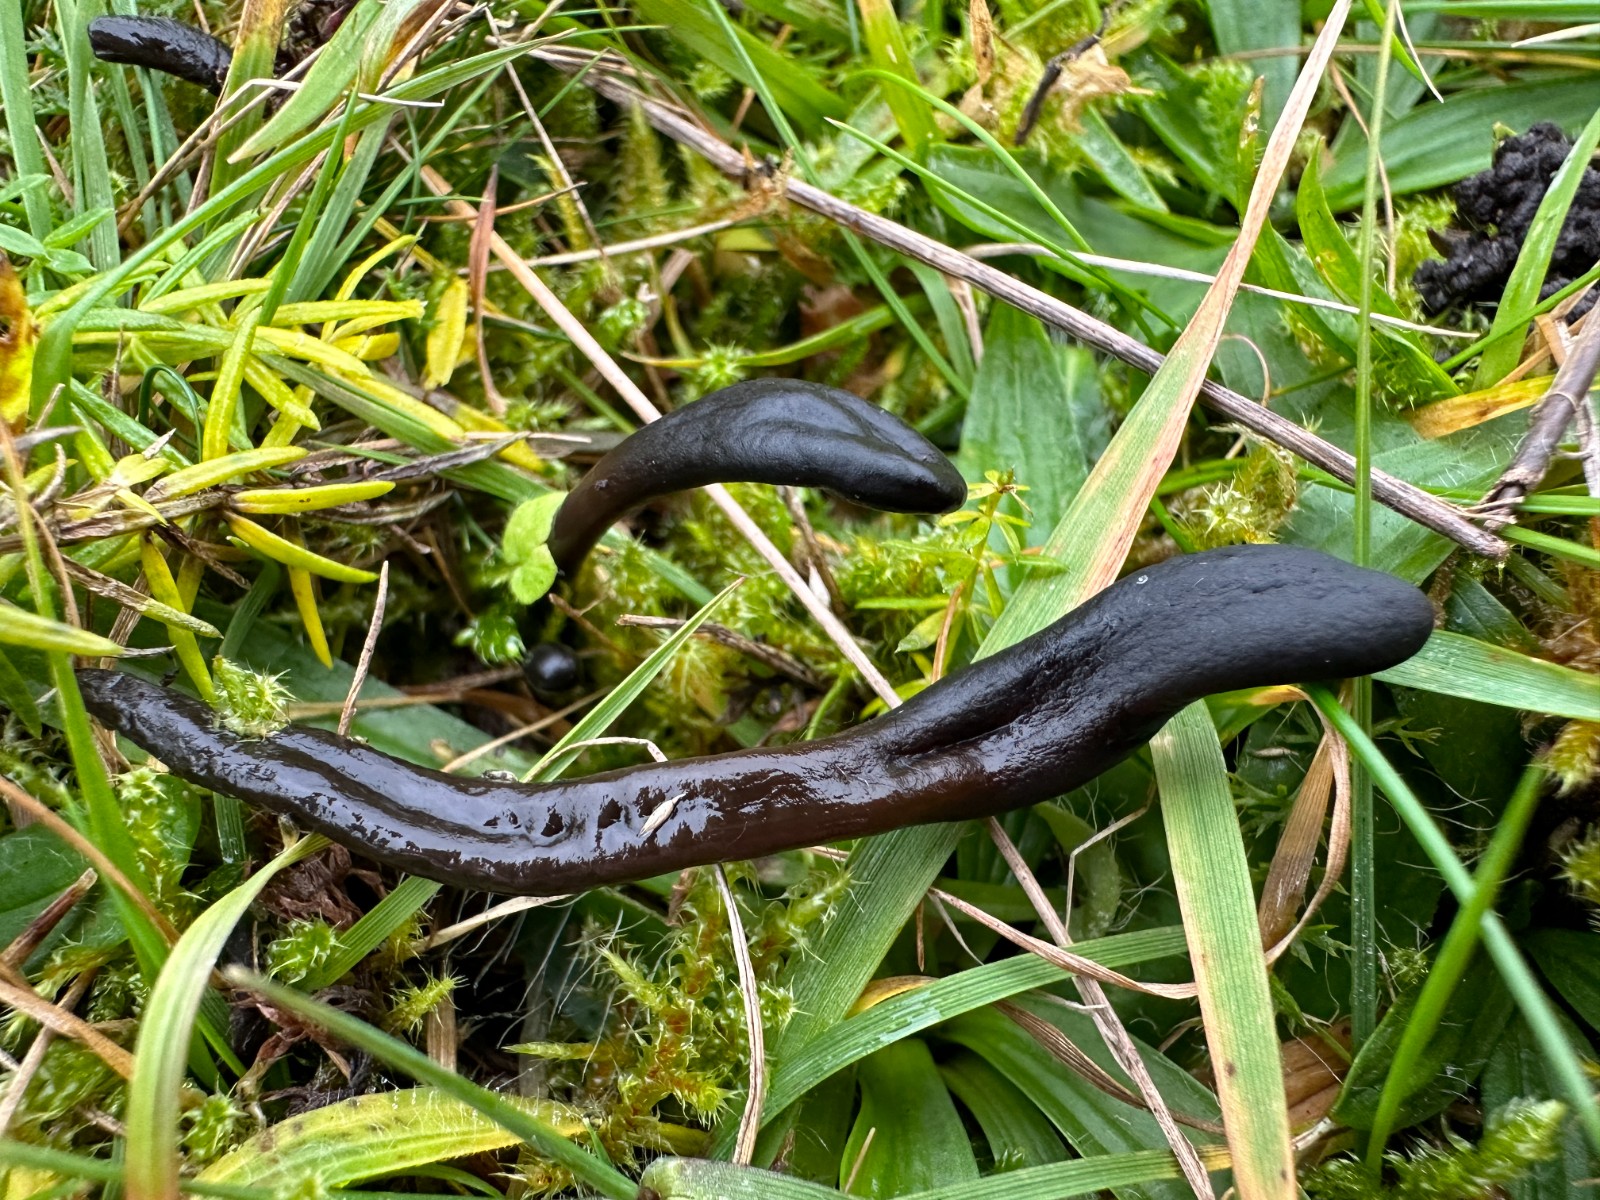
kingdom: Fungi
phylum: Ascomycota
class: Geoglossomycetes
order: Geoglossales
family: Geoglossaceae
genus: Glutinoglossum
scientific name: Glutinoglossum glutinosum
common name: slimet jordtunge
